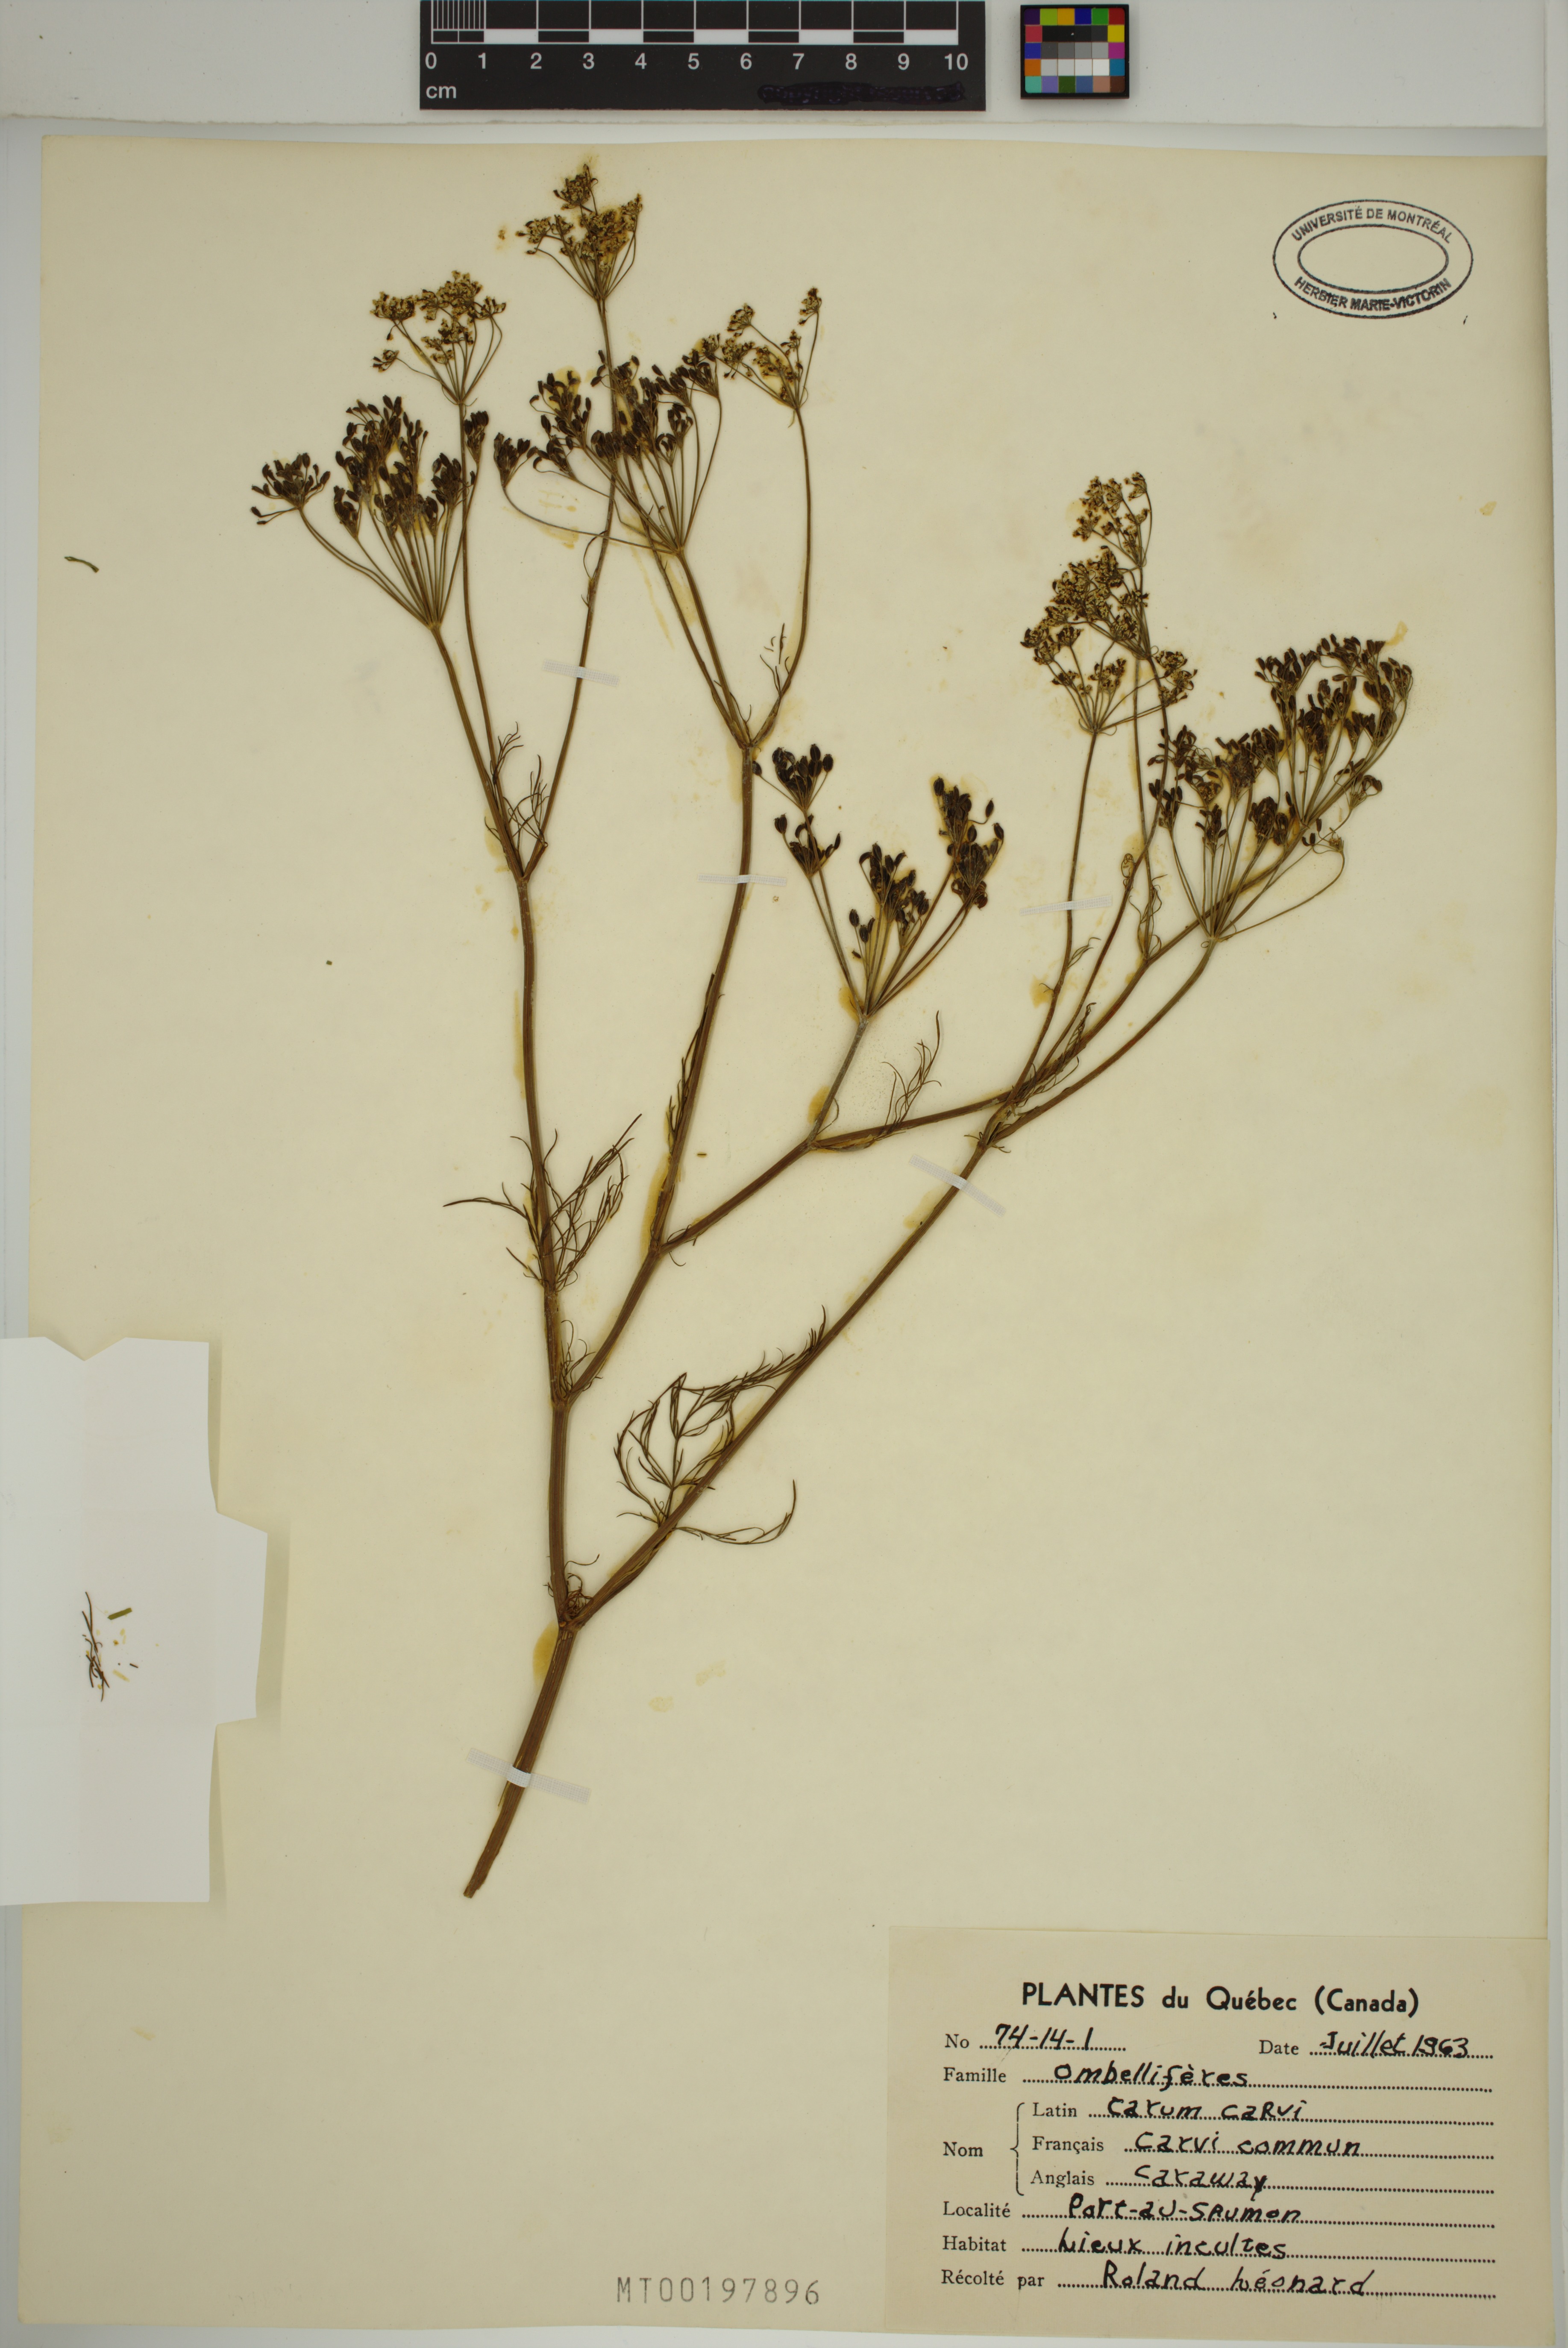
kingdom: Plantae
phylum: Tracheophyta
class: Magnoliopsida
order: Apiales
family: Apiaceae
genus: Carum
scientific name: Carum carvi
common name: Caraway
